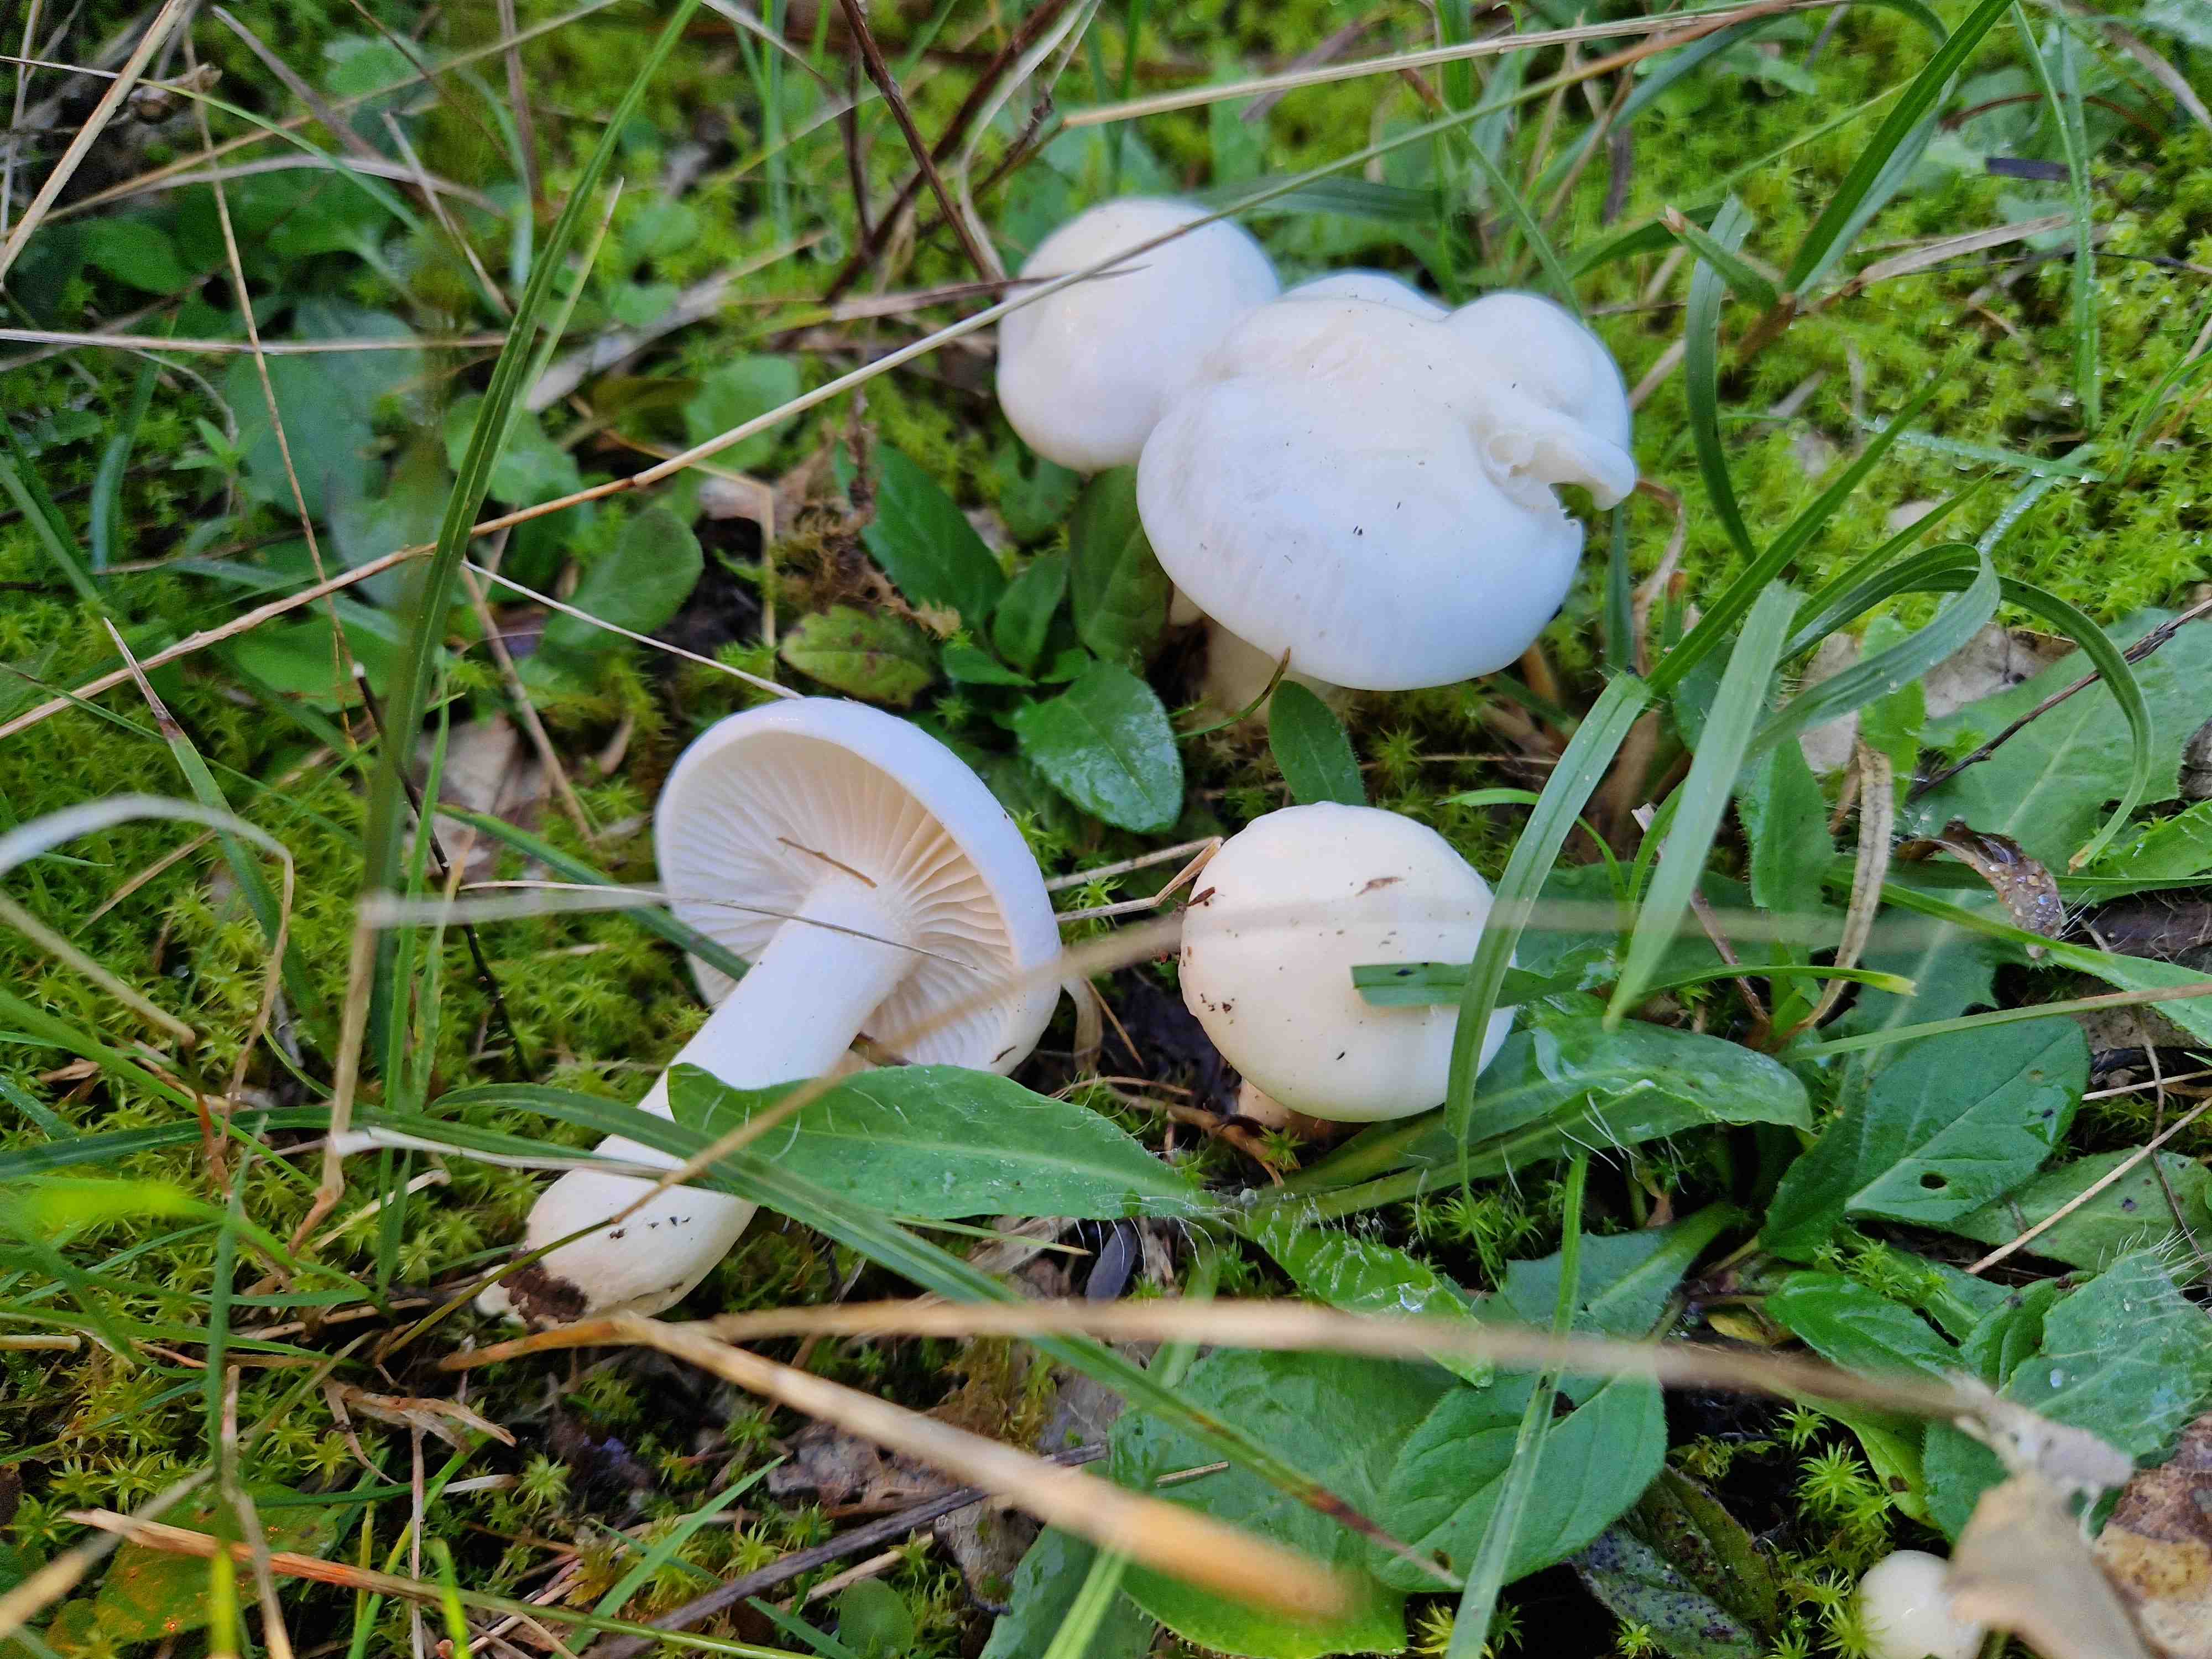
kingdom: Fungi
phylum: Basidiomycota
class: Agaricomycetes
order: Agaricales
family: Hygrophoraceae
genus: Hygrophorus
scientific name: Hygrophorus
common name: sneglehat
